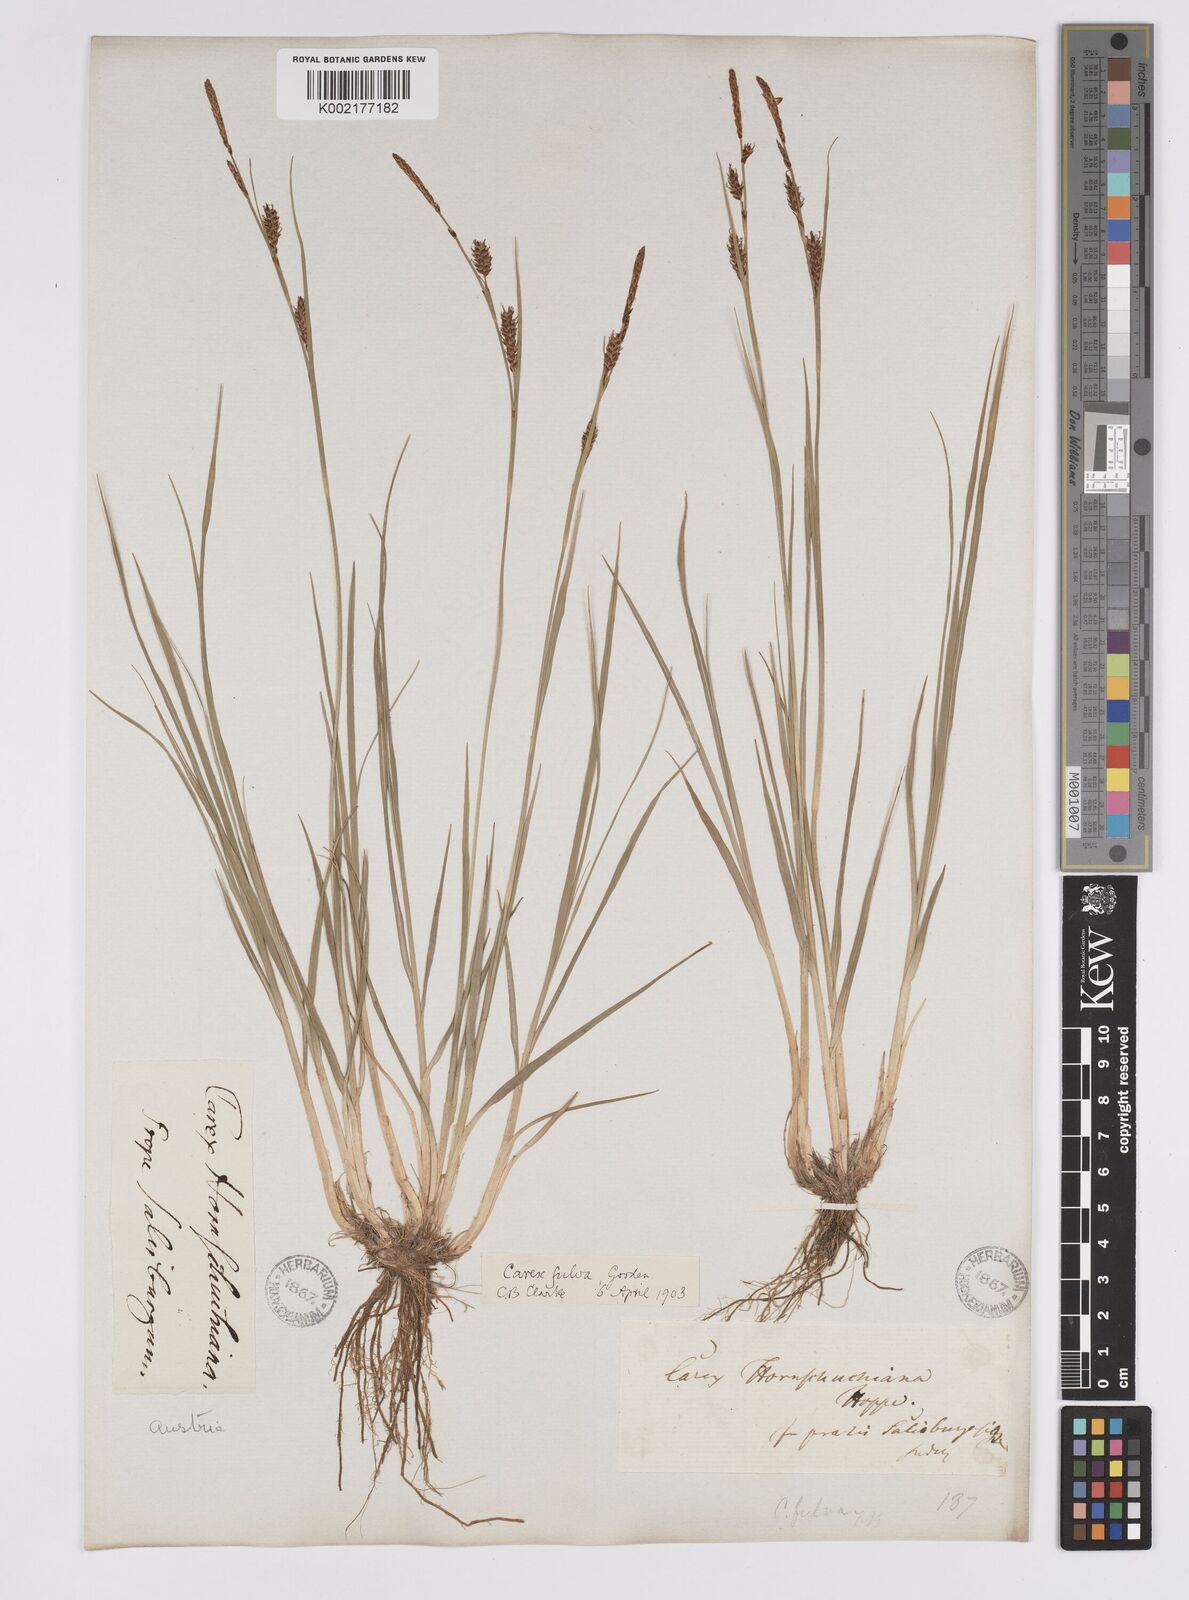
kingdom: Plantae
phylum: Tracheophyta
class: Liliopsida
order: Poales
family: Cyperaceae
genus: Carex
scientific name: Carex hostiana
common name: Tawny sedge
